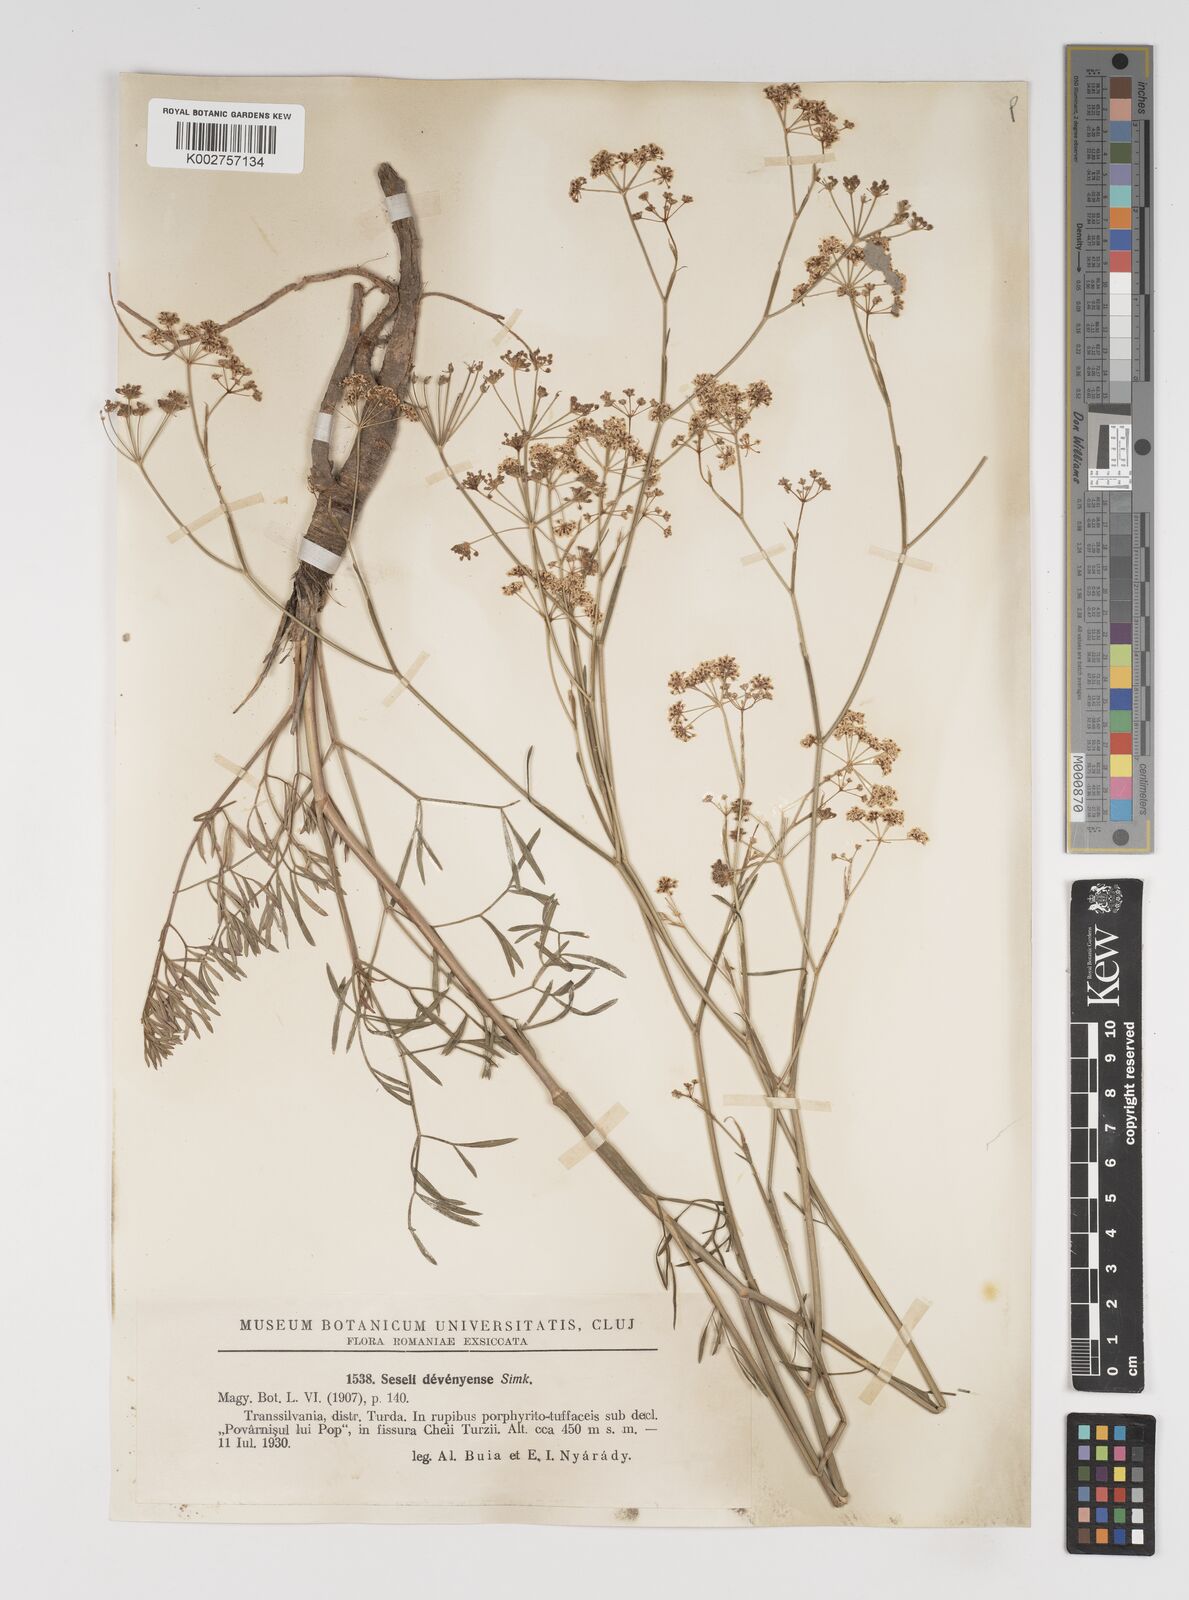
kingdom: Plantae
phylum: Tracheophyta
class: Magnoliopsida
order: Apiales
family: Apiaceae
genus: Seseli
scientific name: Seseli longifolium
